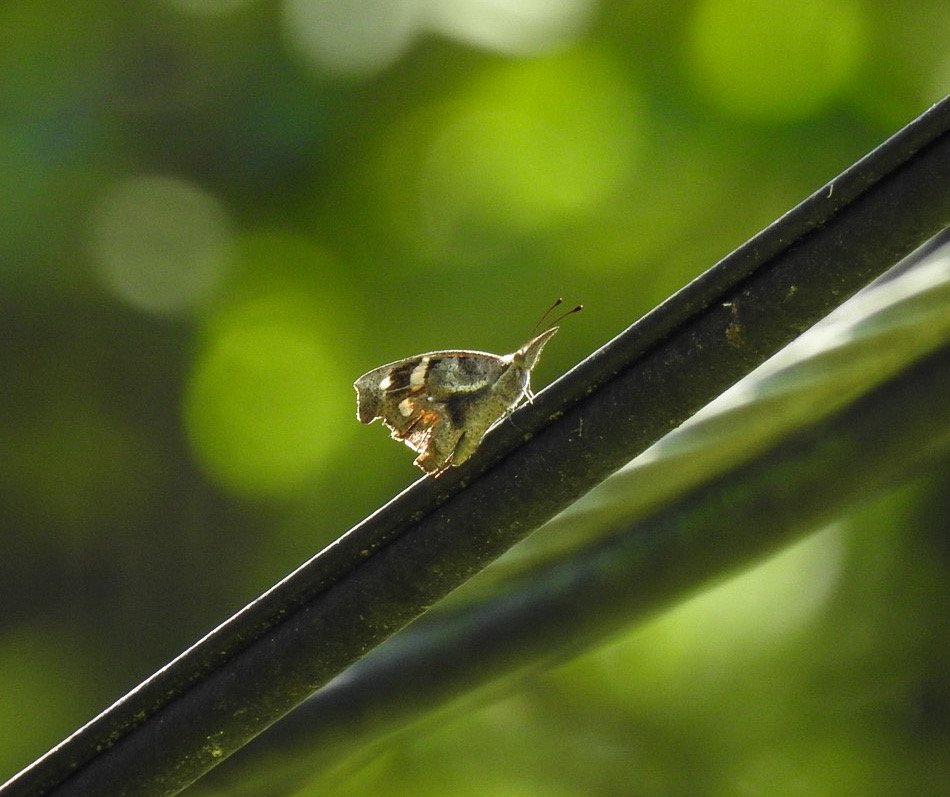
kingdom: Animalia
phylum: Arthropoda
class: Insecta
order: Lepidoptera
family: Nymphalidae
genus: Libytheana
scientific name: Libytheana carinenta
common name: American Snout
